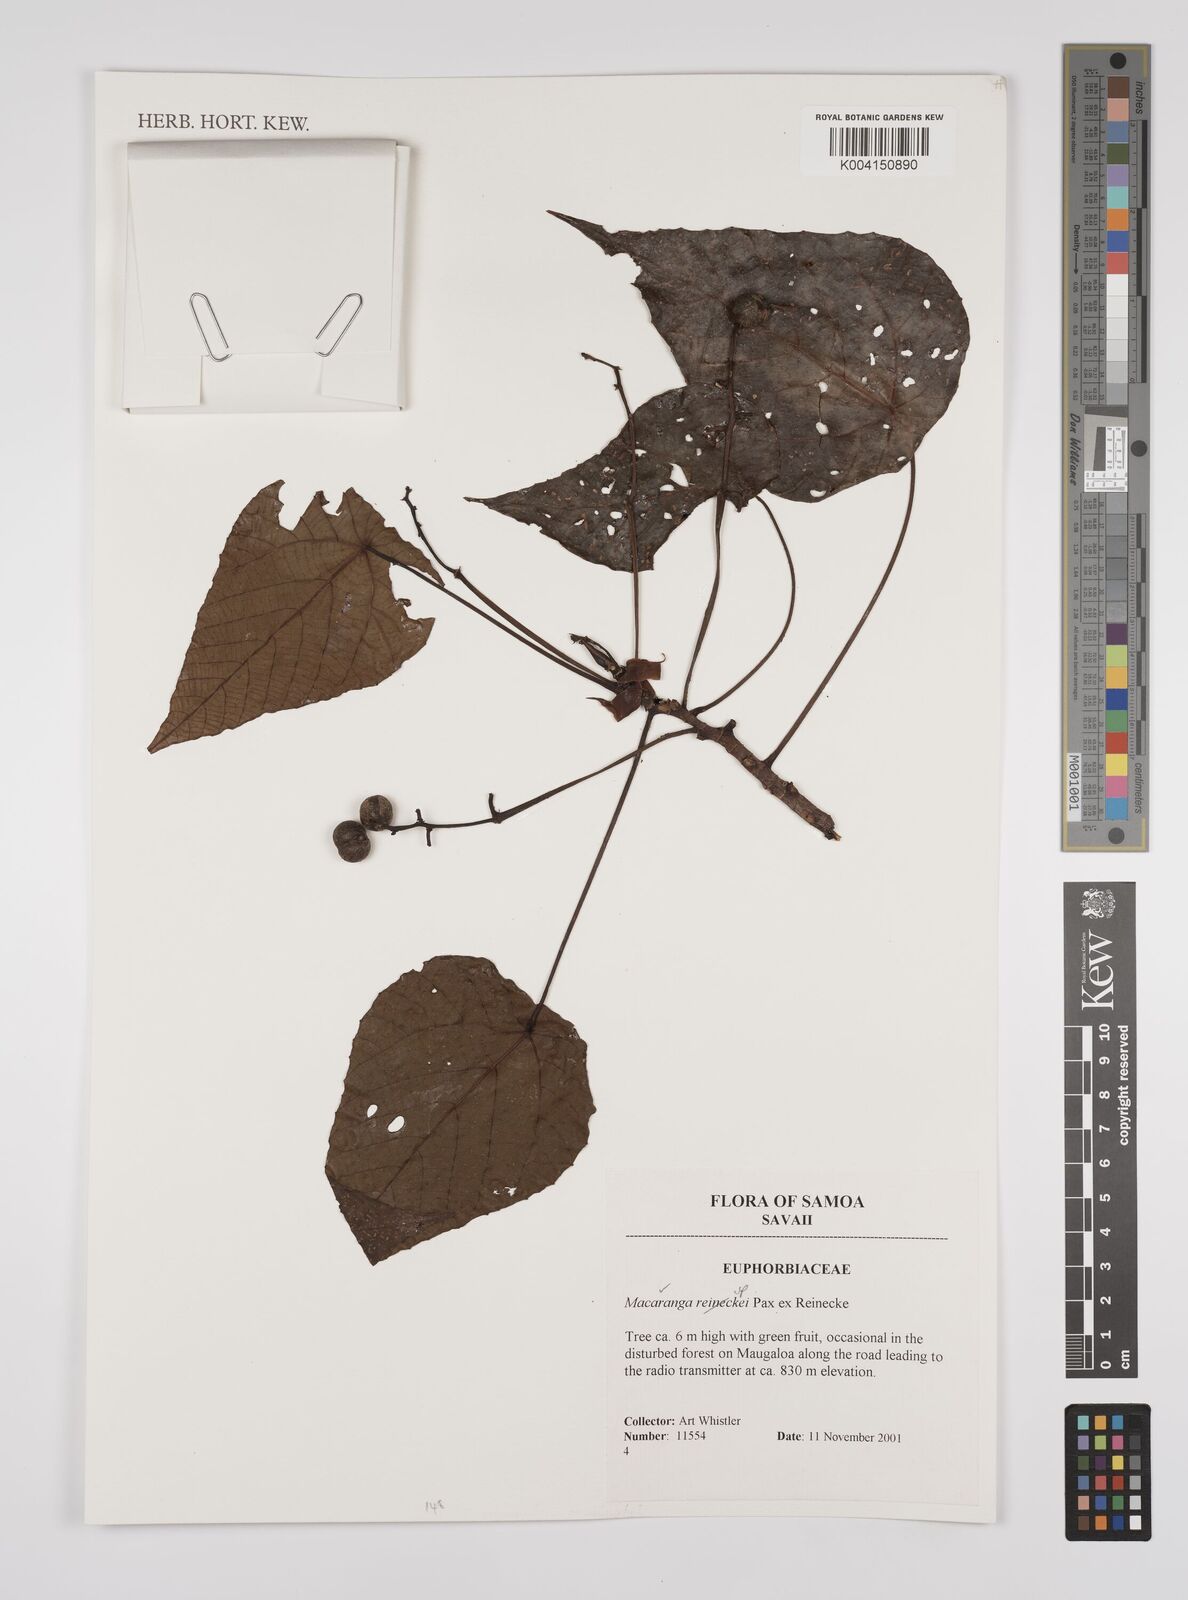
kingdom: Plantae
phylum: Tracheophyta
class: Magnoliopsida
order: Malpighiales
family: Euphorbiaceae
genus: Macaranga
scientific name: Macaranga
